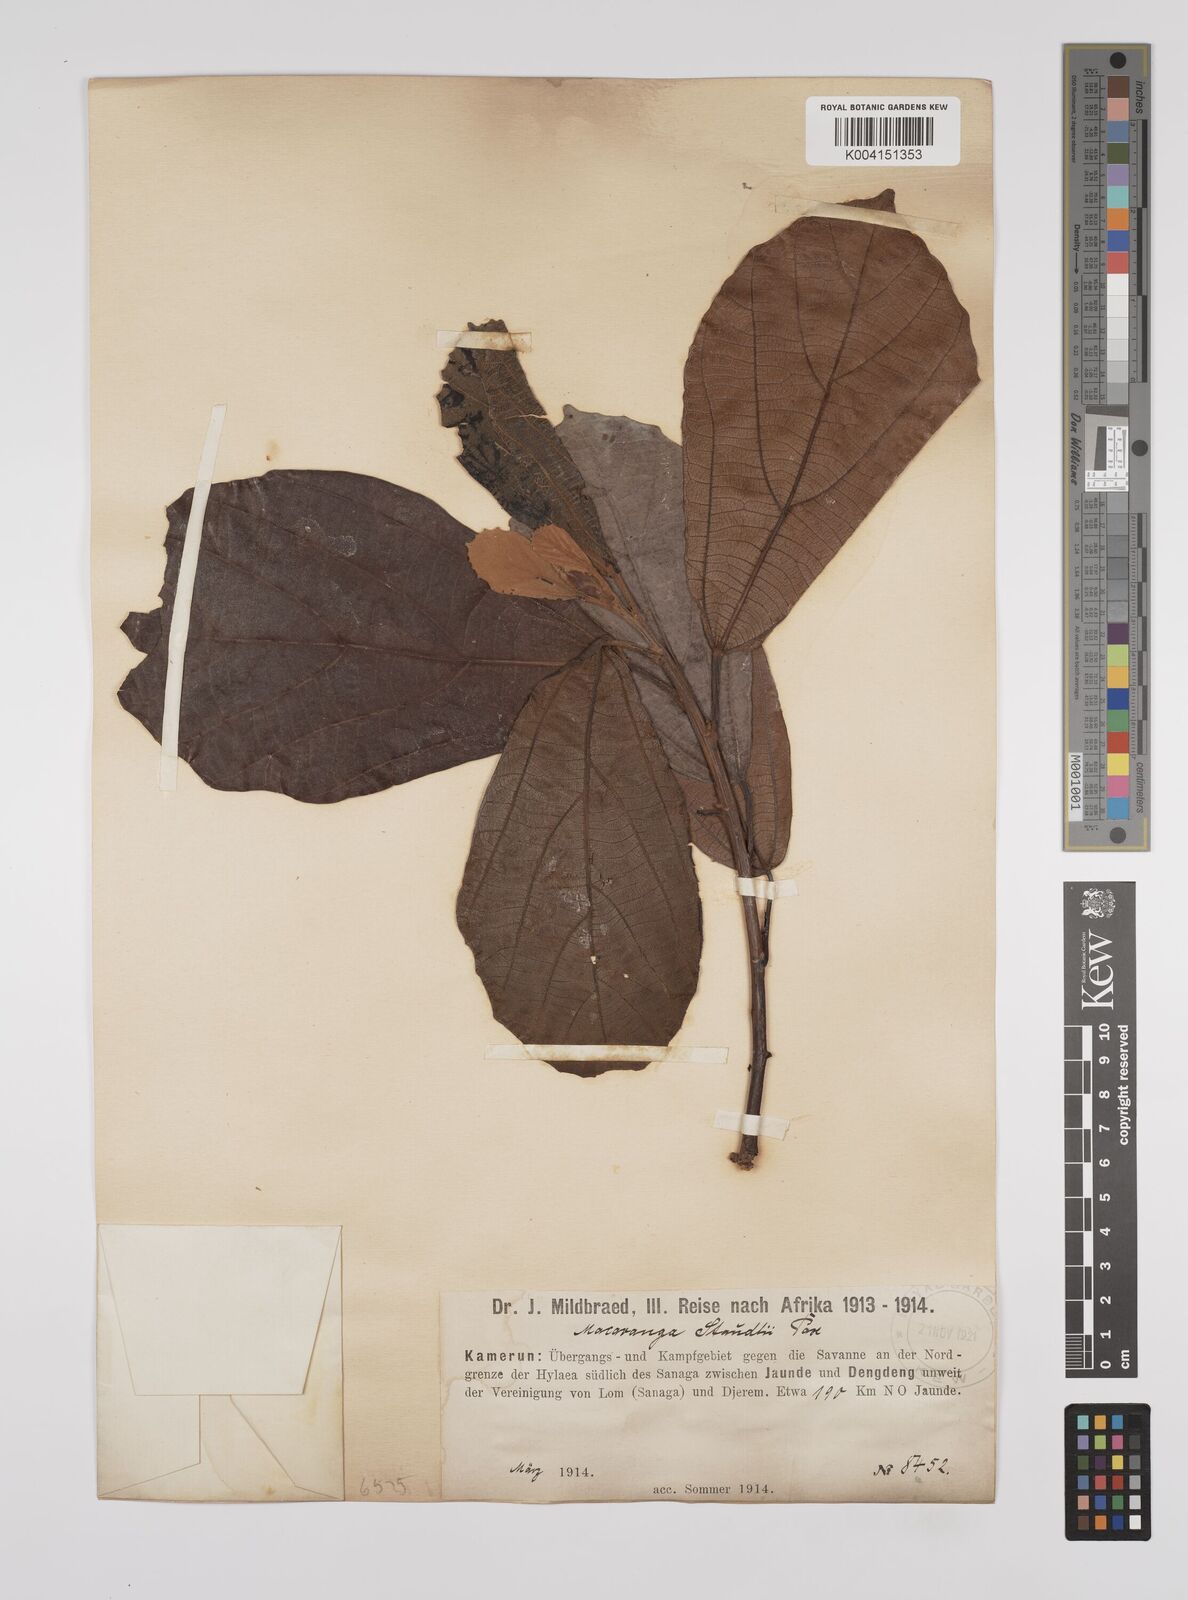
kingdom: Plantae
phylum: Tracheophyta
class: Magnoliopsida
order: Malpighiales
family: Euphorbiaceae
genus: Macaranga
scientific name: Macaranga staudtii
